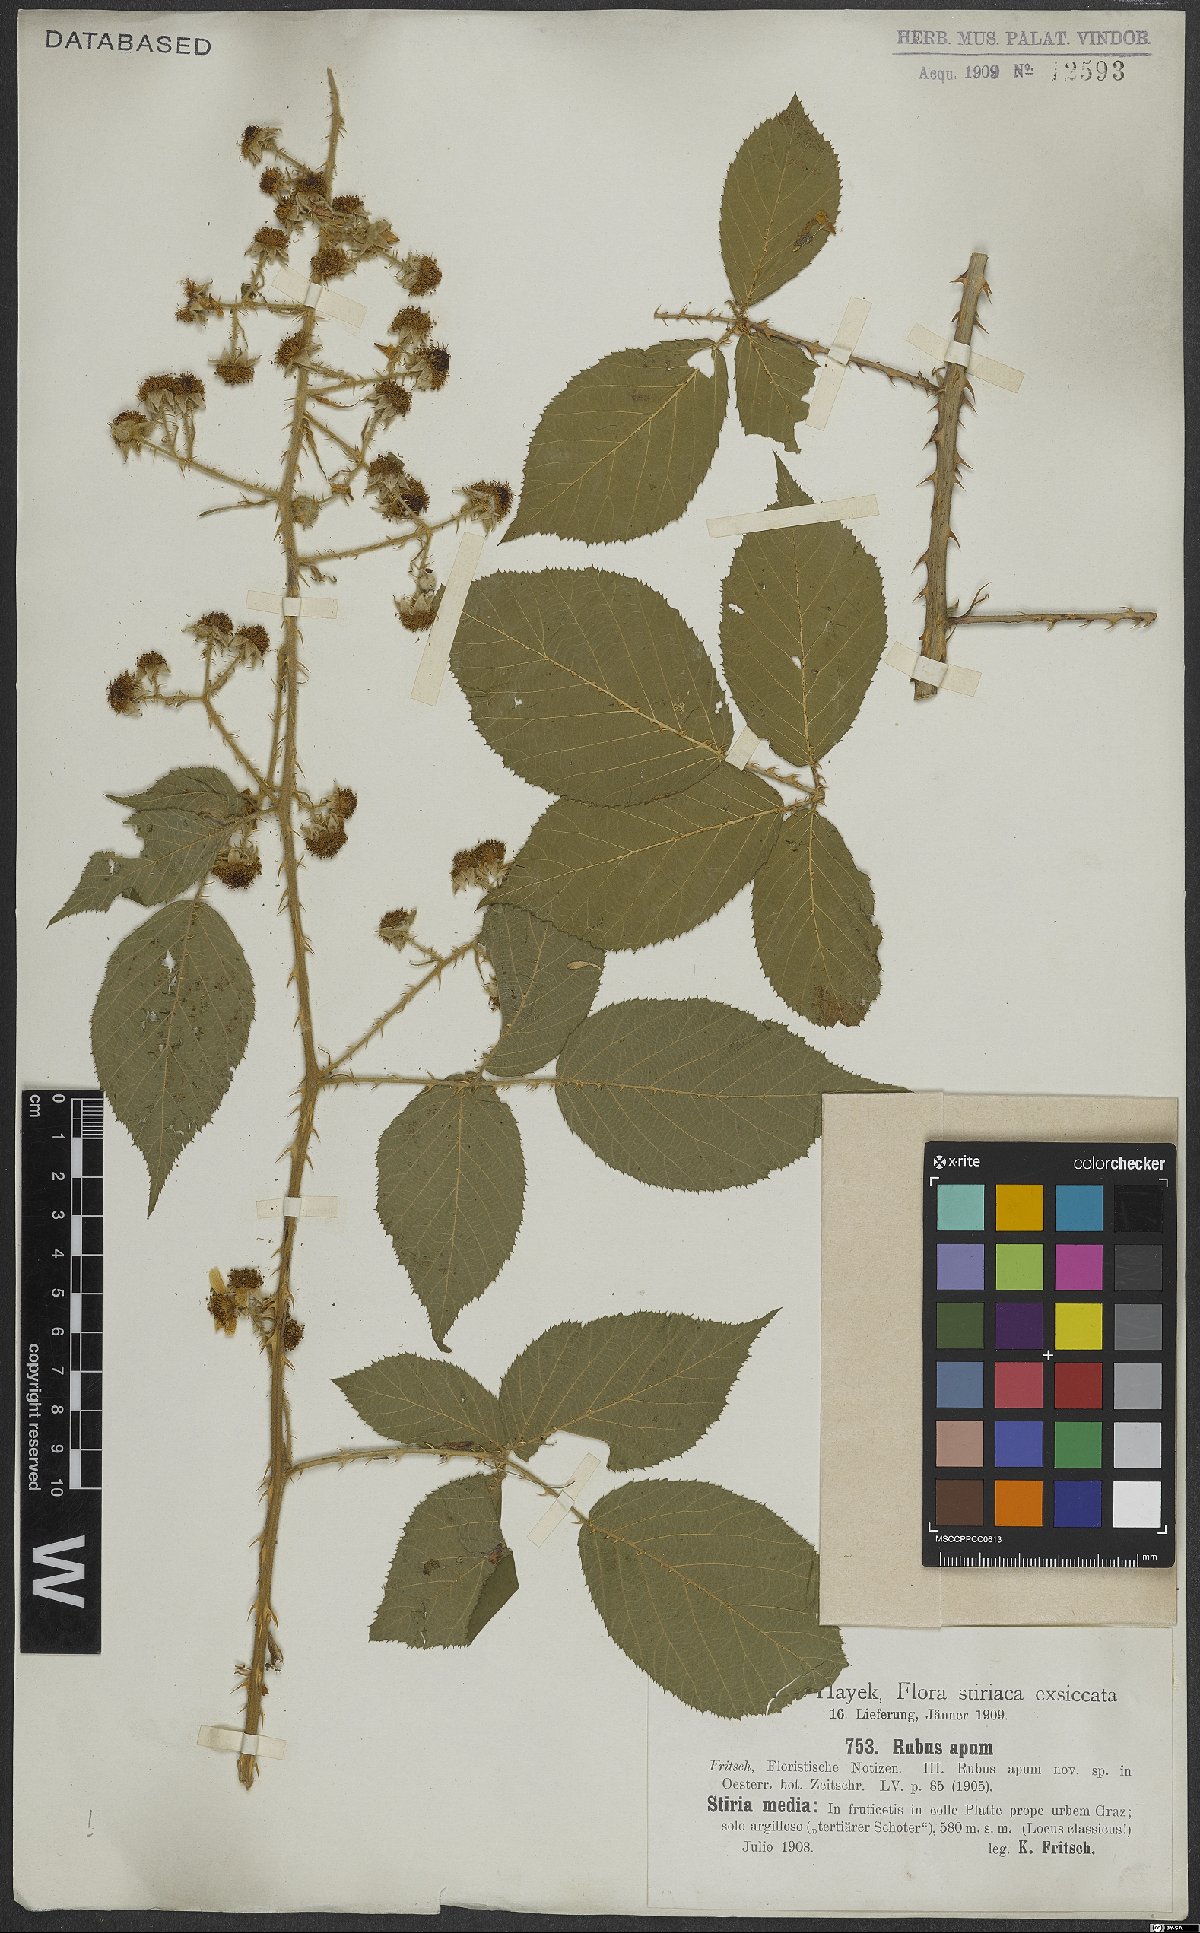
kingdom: Plantae
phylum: Tracheophyta
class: Magnoliopsida
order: Rosales
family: Rosaceae
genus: Rubus
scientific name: Rubus ferox
